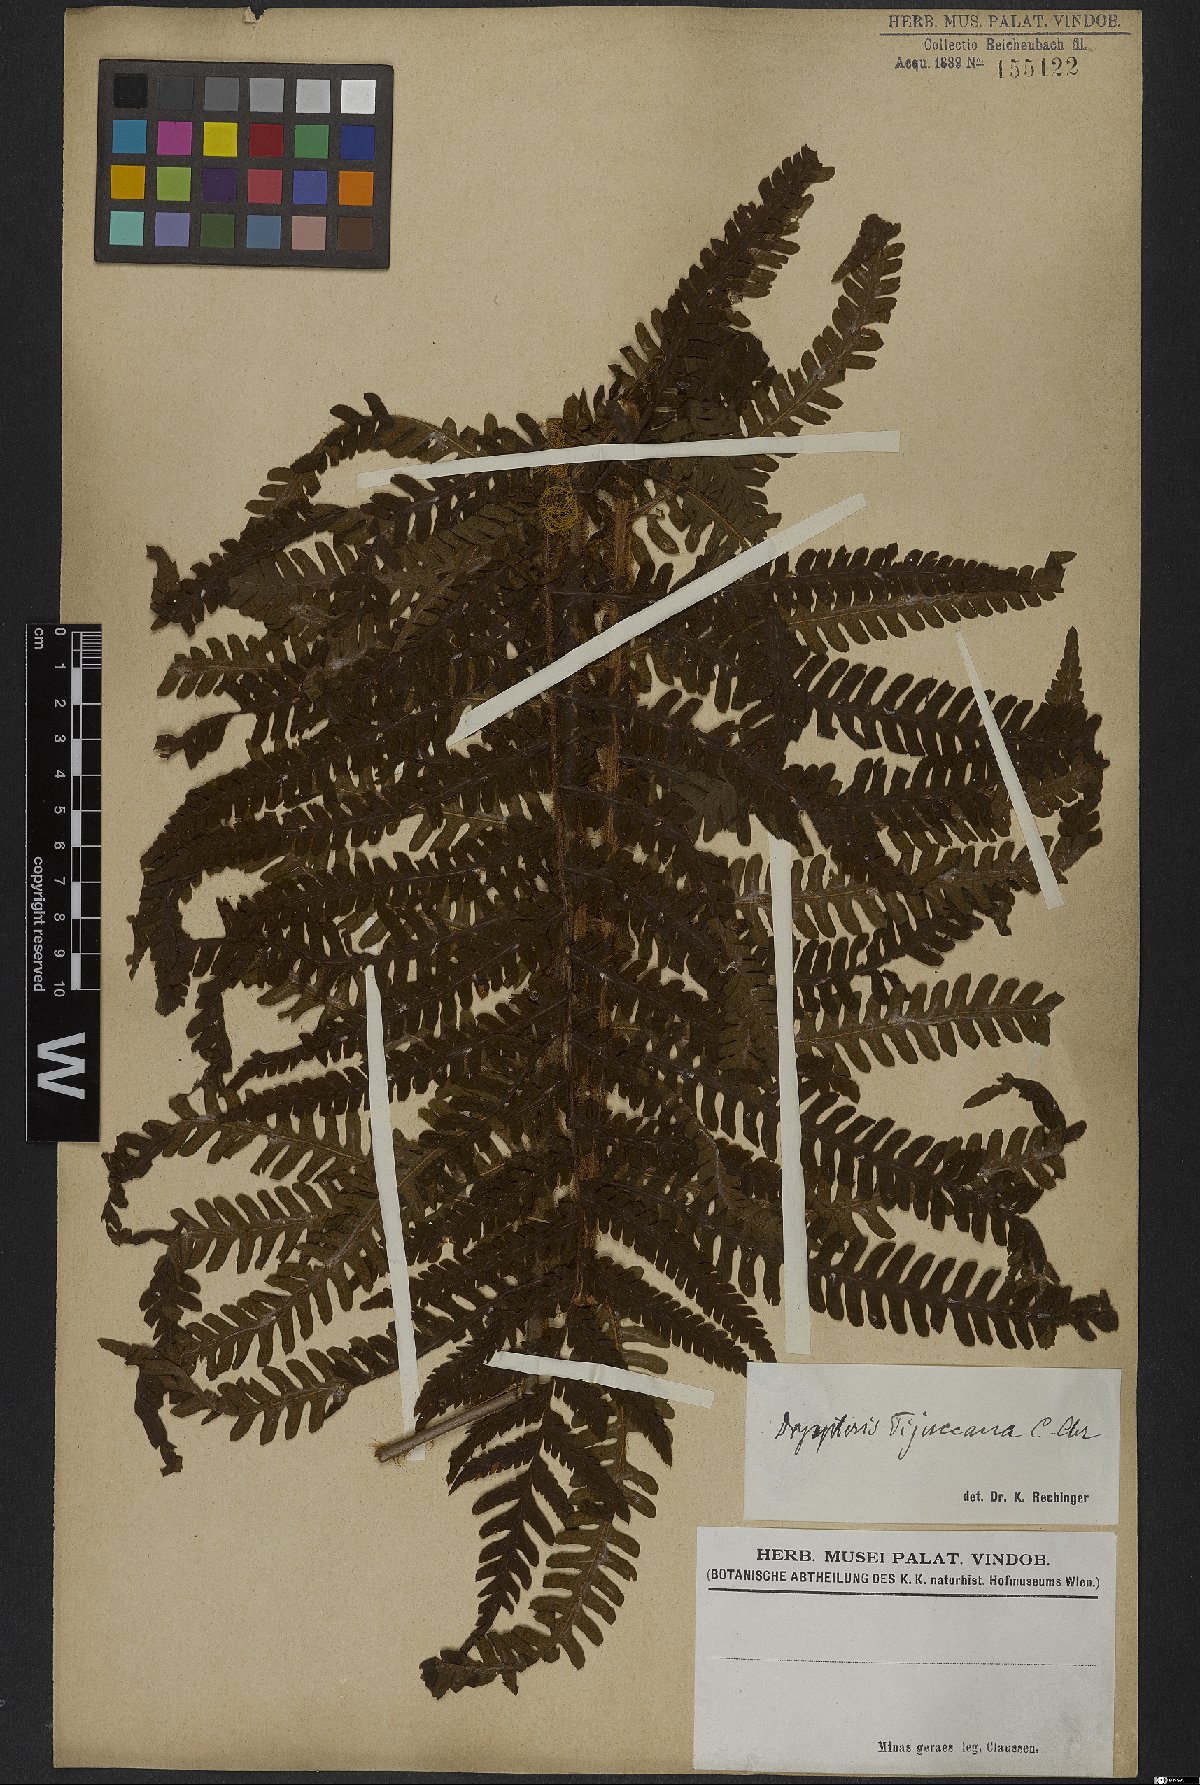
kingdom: Plantae
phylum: Tracheophyta
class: Polypodiopsida
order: Polypodiales
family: Dryopteridaceae
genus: Stigmatopteris
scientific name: Stigmatopteris tijuccana
